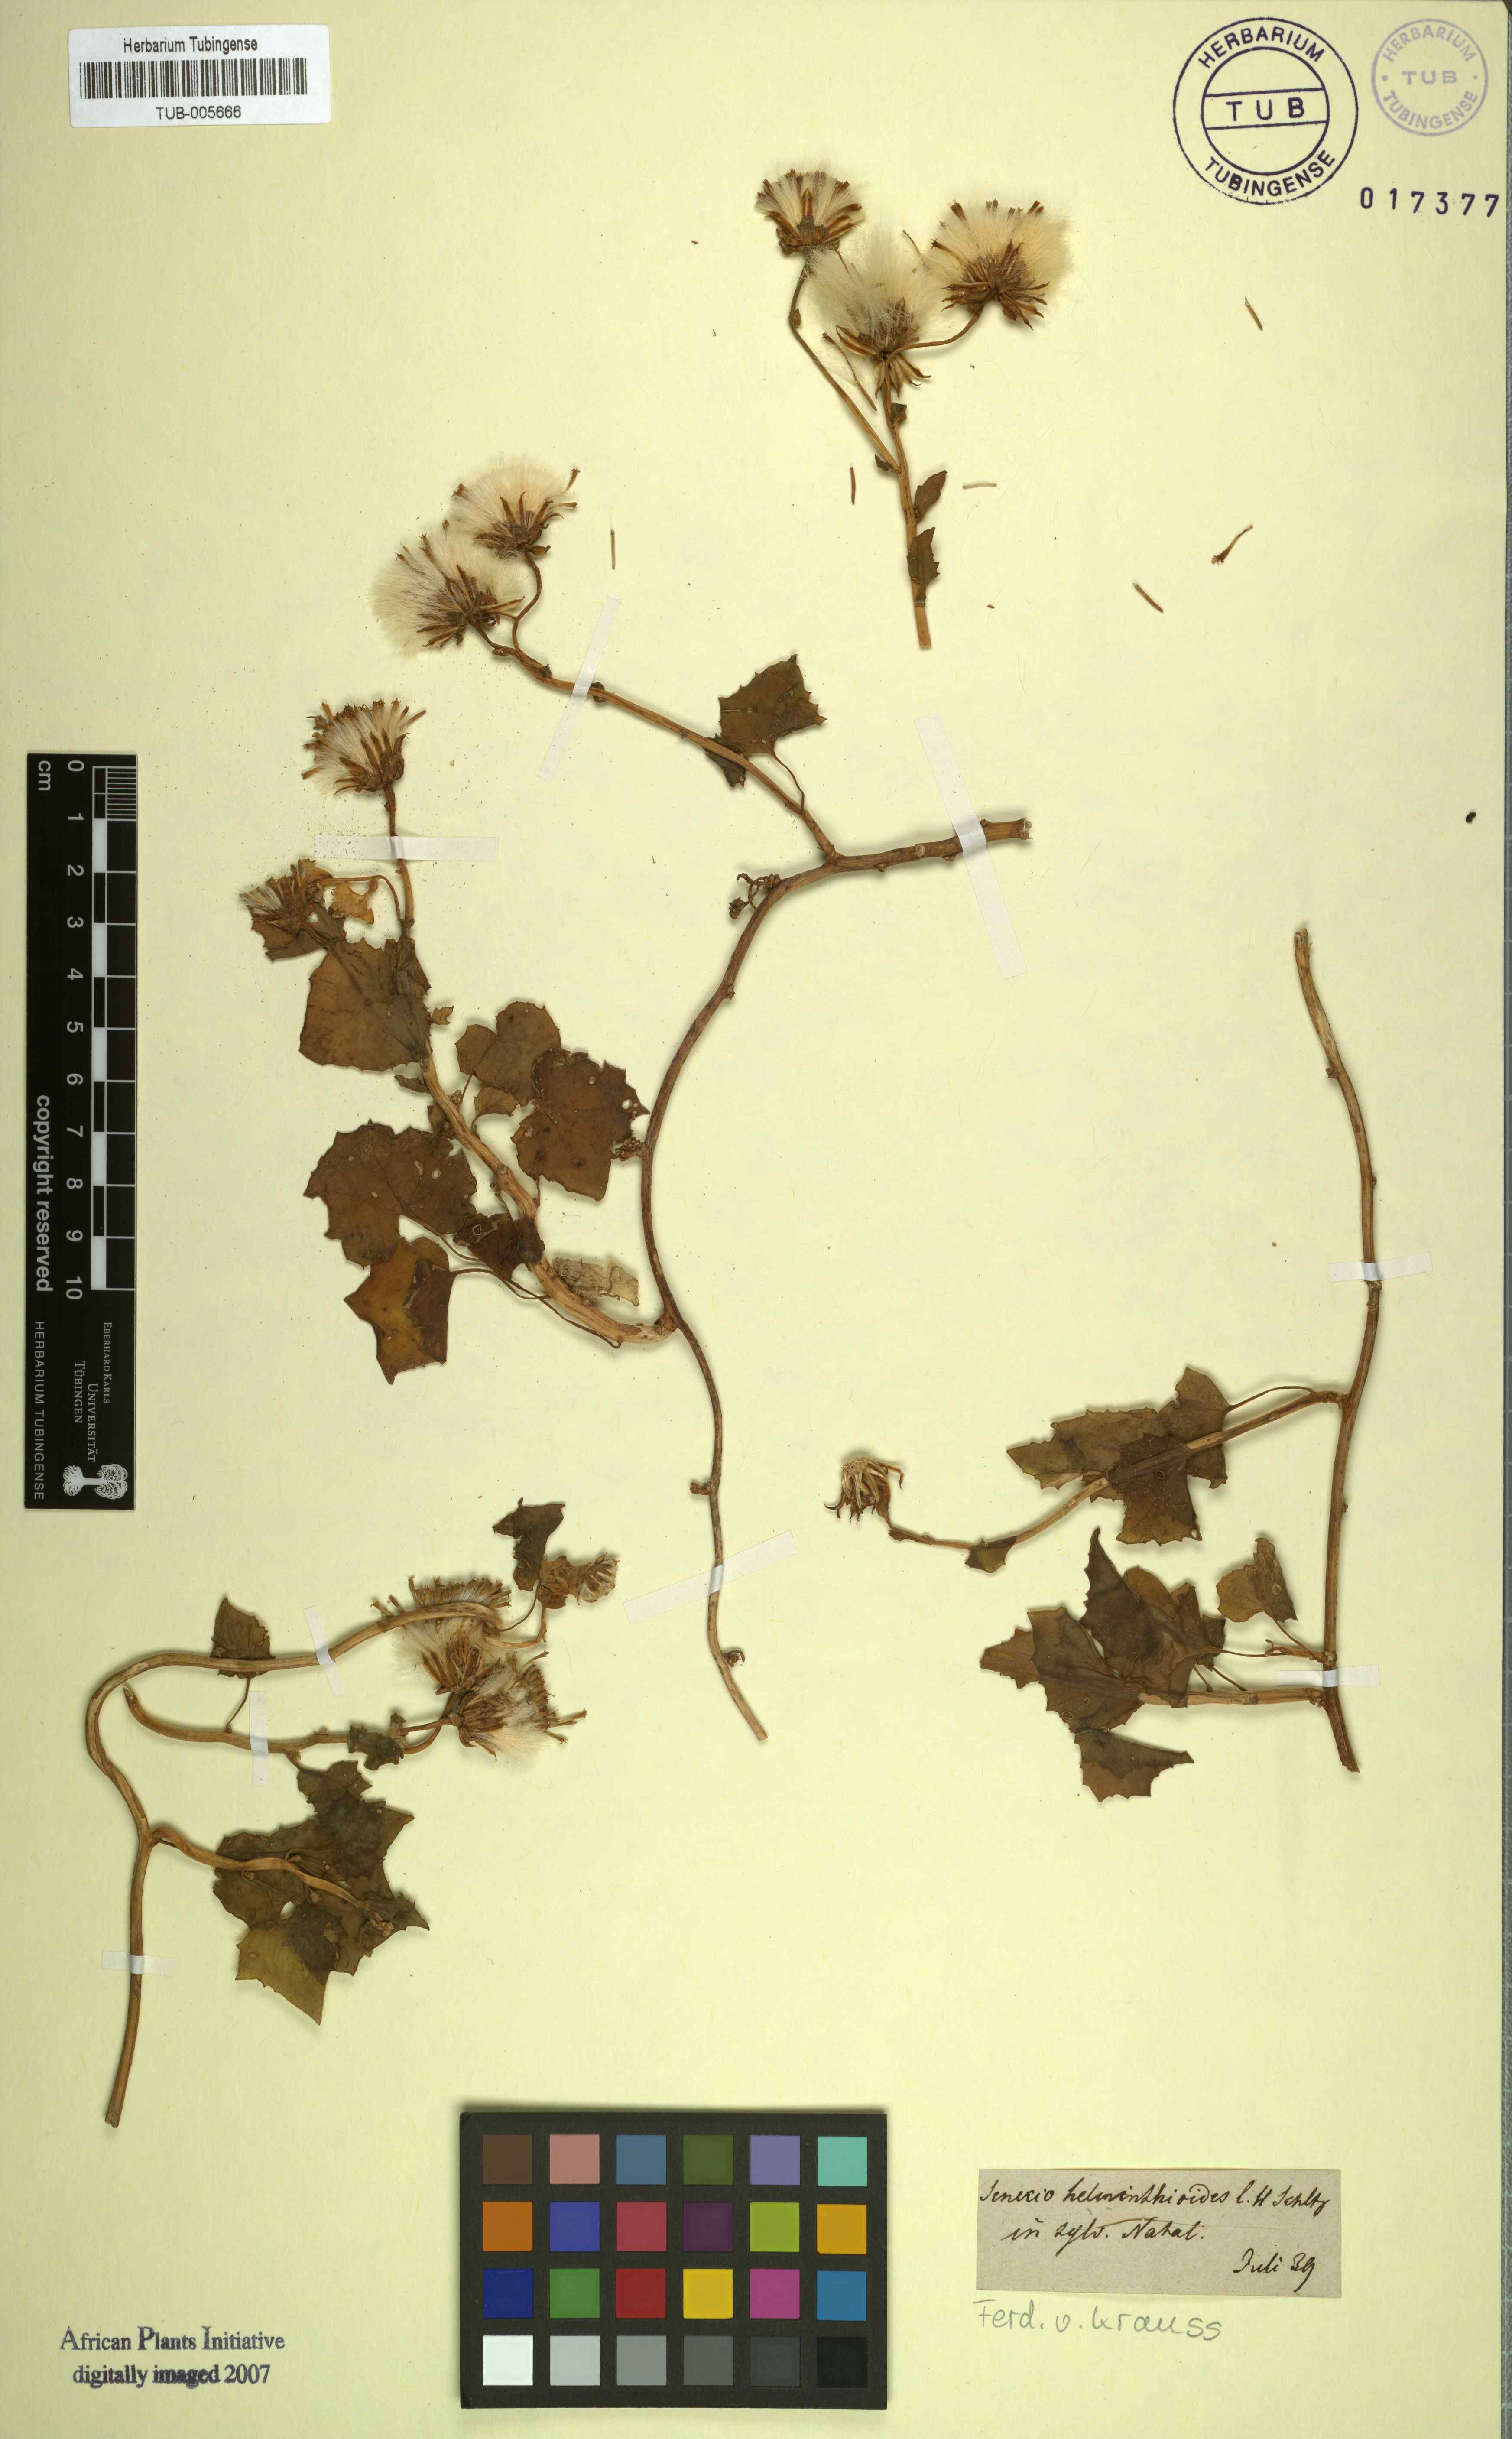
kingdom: Plantae
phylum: Tracheophyta
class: Magnoliopsida
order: Asterales
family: Asteraceae
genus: Senecio
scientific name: Senecio helminthioides
